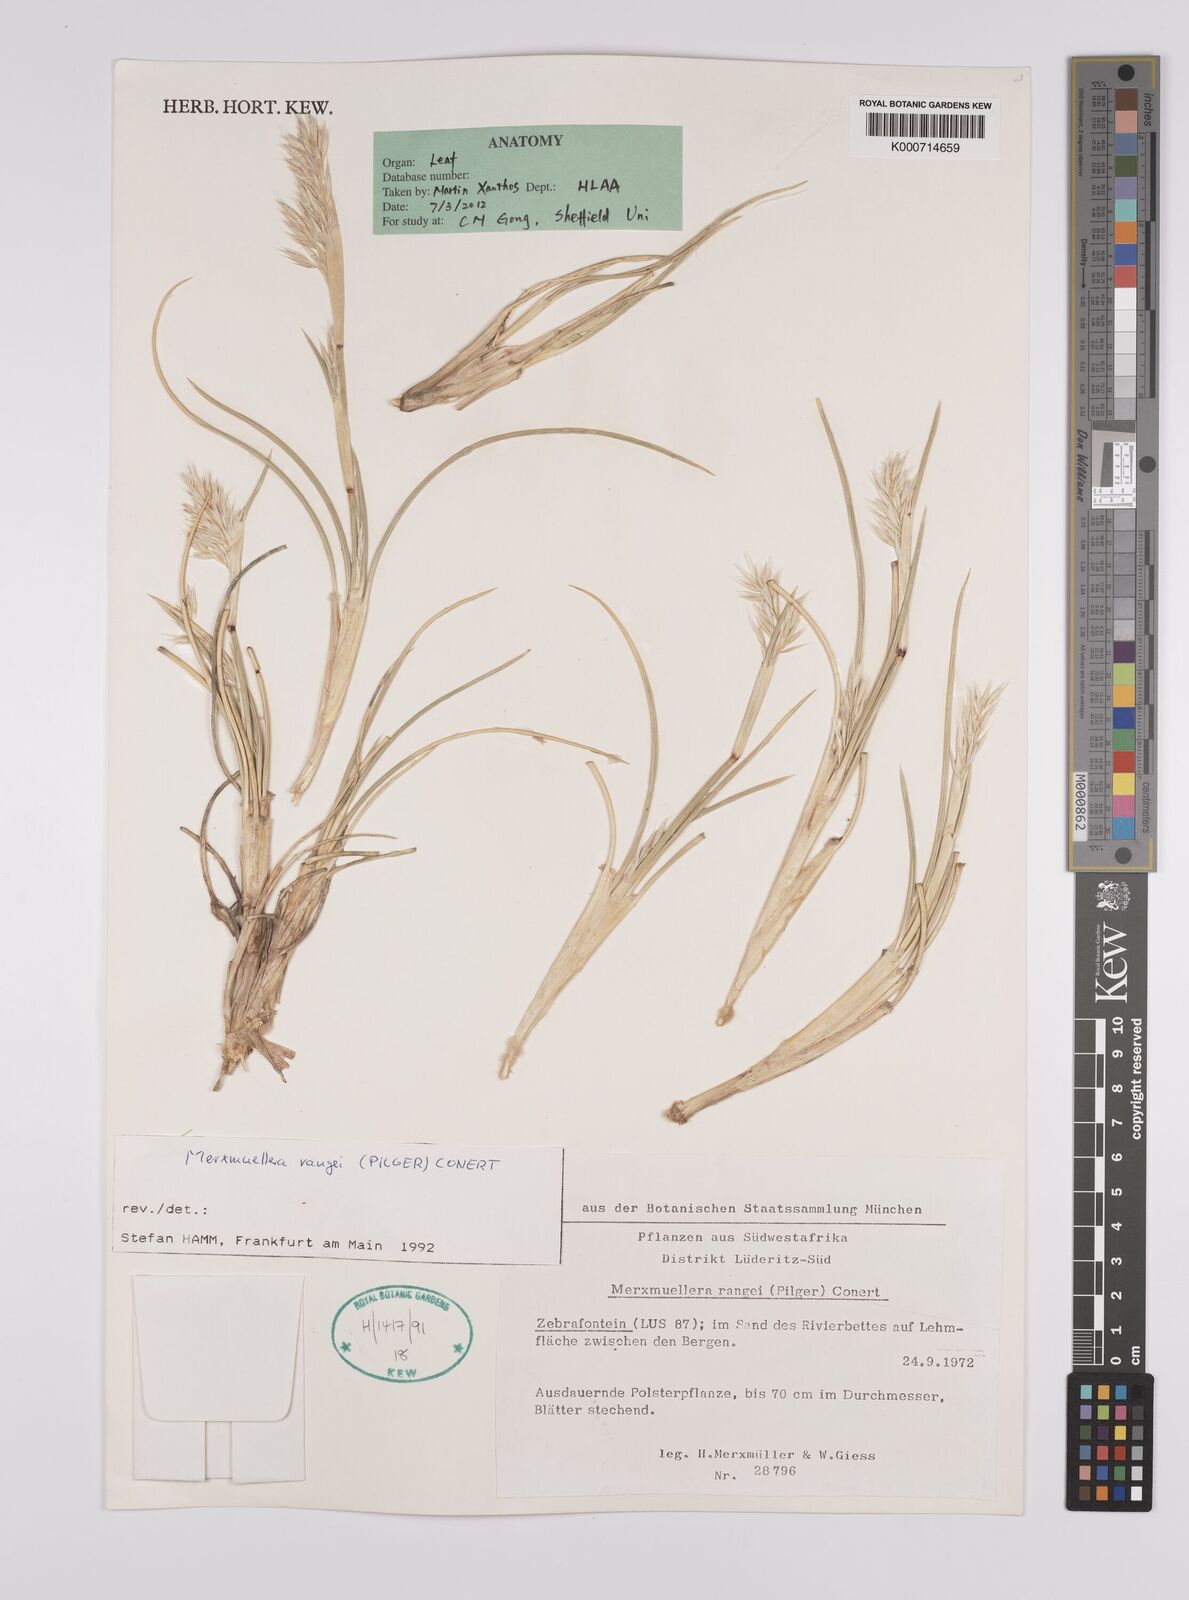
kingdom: Plantae
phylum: Tracheophyta
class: Liliopsida
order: Poales
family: Poaceae
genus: Rytidosperma
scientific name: Rytidosperma
